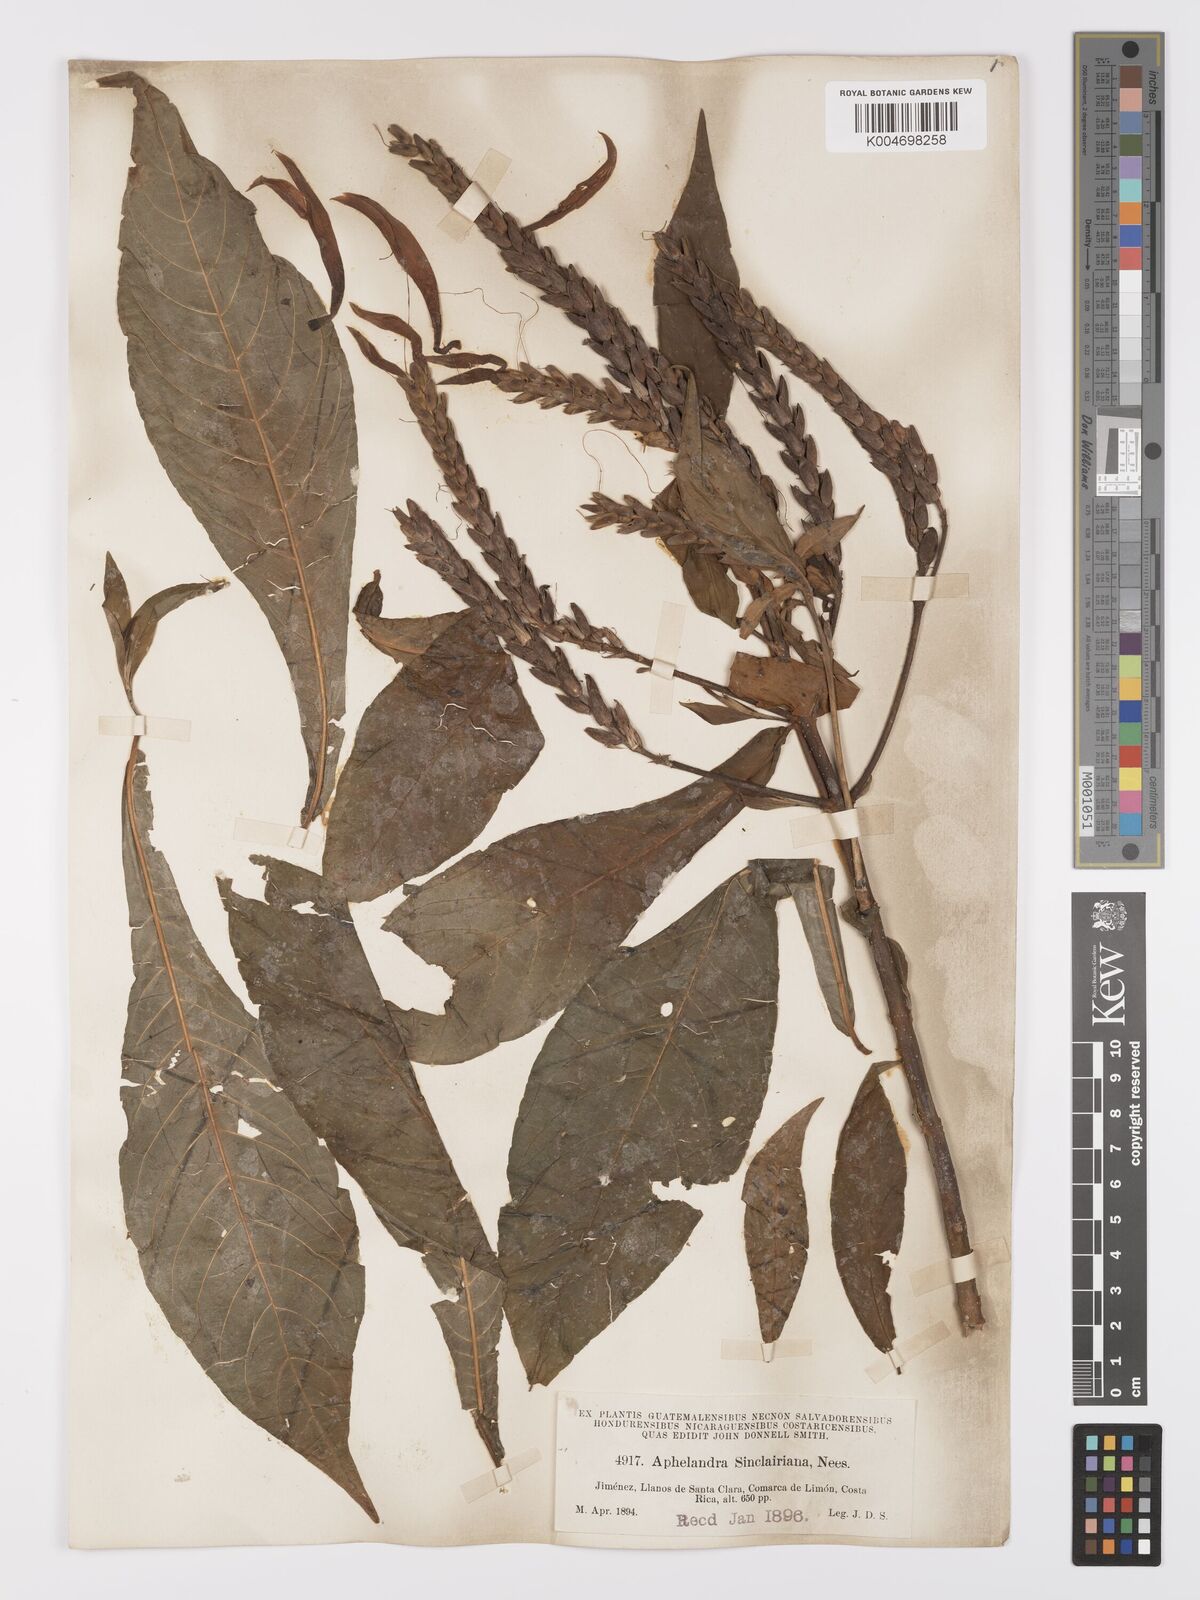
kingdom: Plantae
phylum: Tracheophyta
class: Magnoliopsida
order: Lamiales
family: Acanthaceae
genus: Aphelandra
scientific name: Aphelandra sinclairiana
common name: Coral aphelandra
